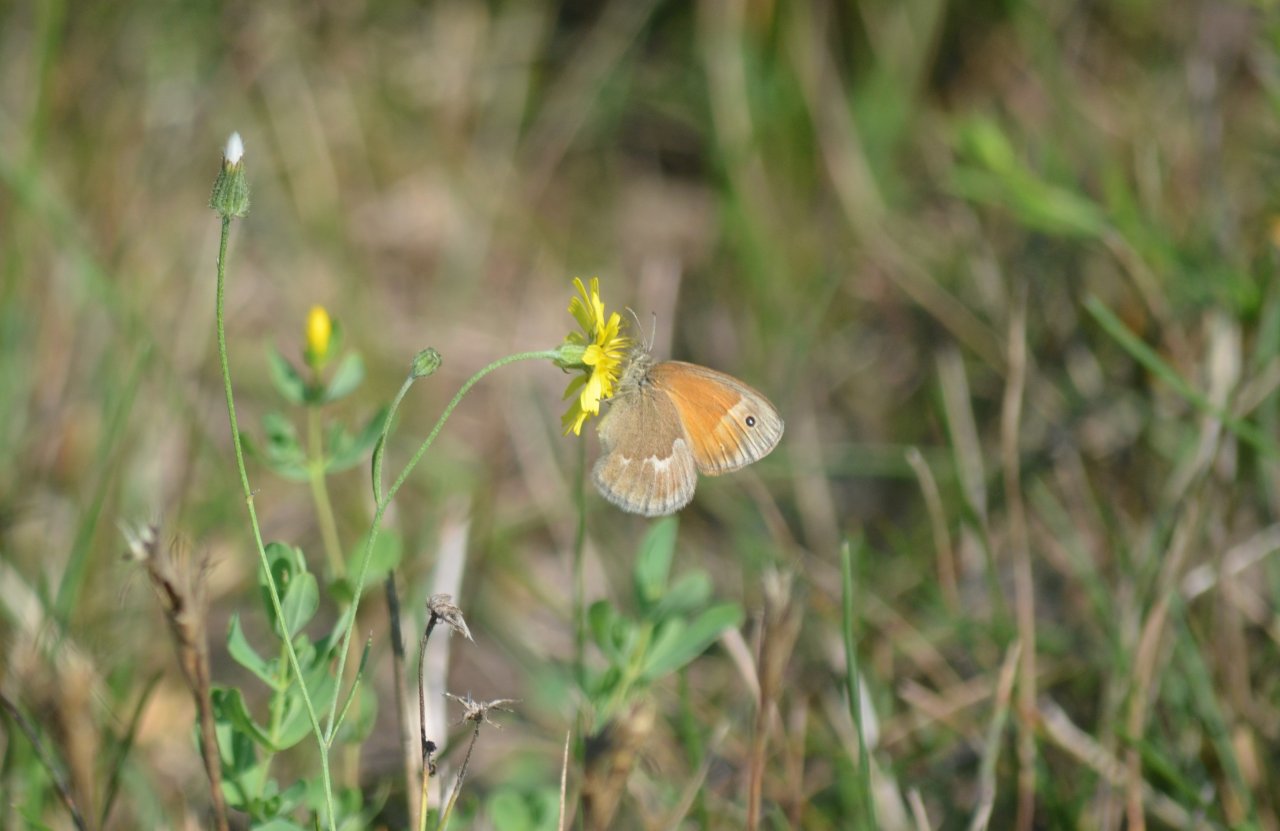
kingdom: Animalia
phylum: Arthropoda
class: Insecta
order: Lepidoptera
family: Nymphalidae
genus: Coenonympha
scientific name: Coenonympha tullia
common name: Large Heath
